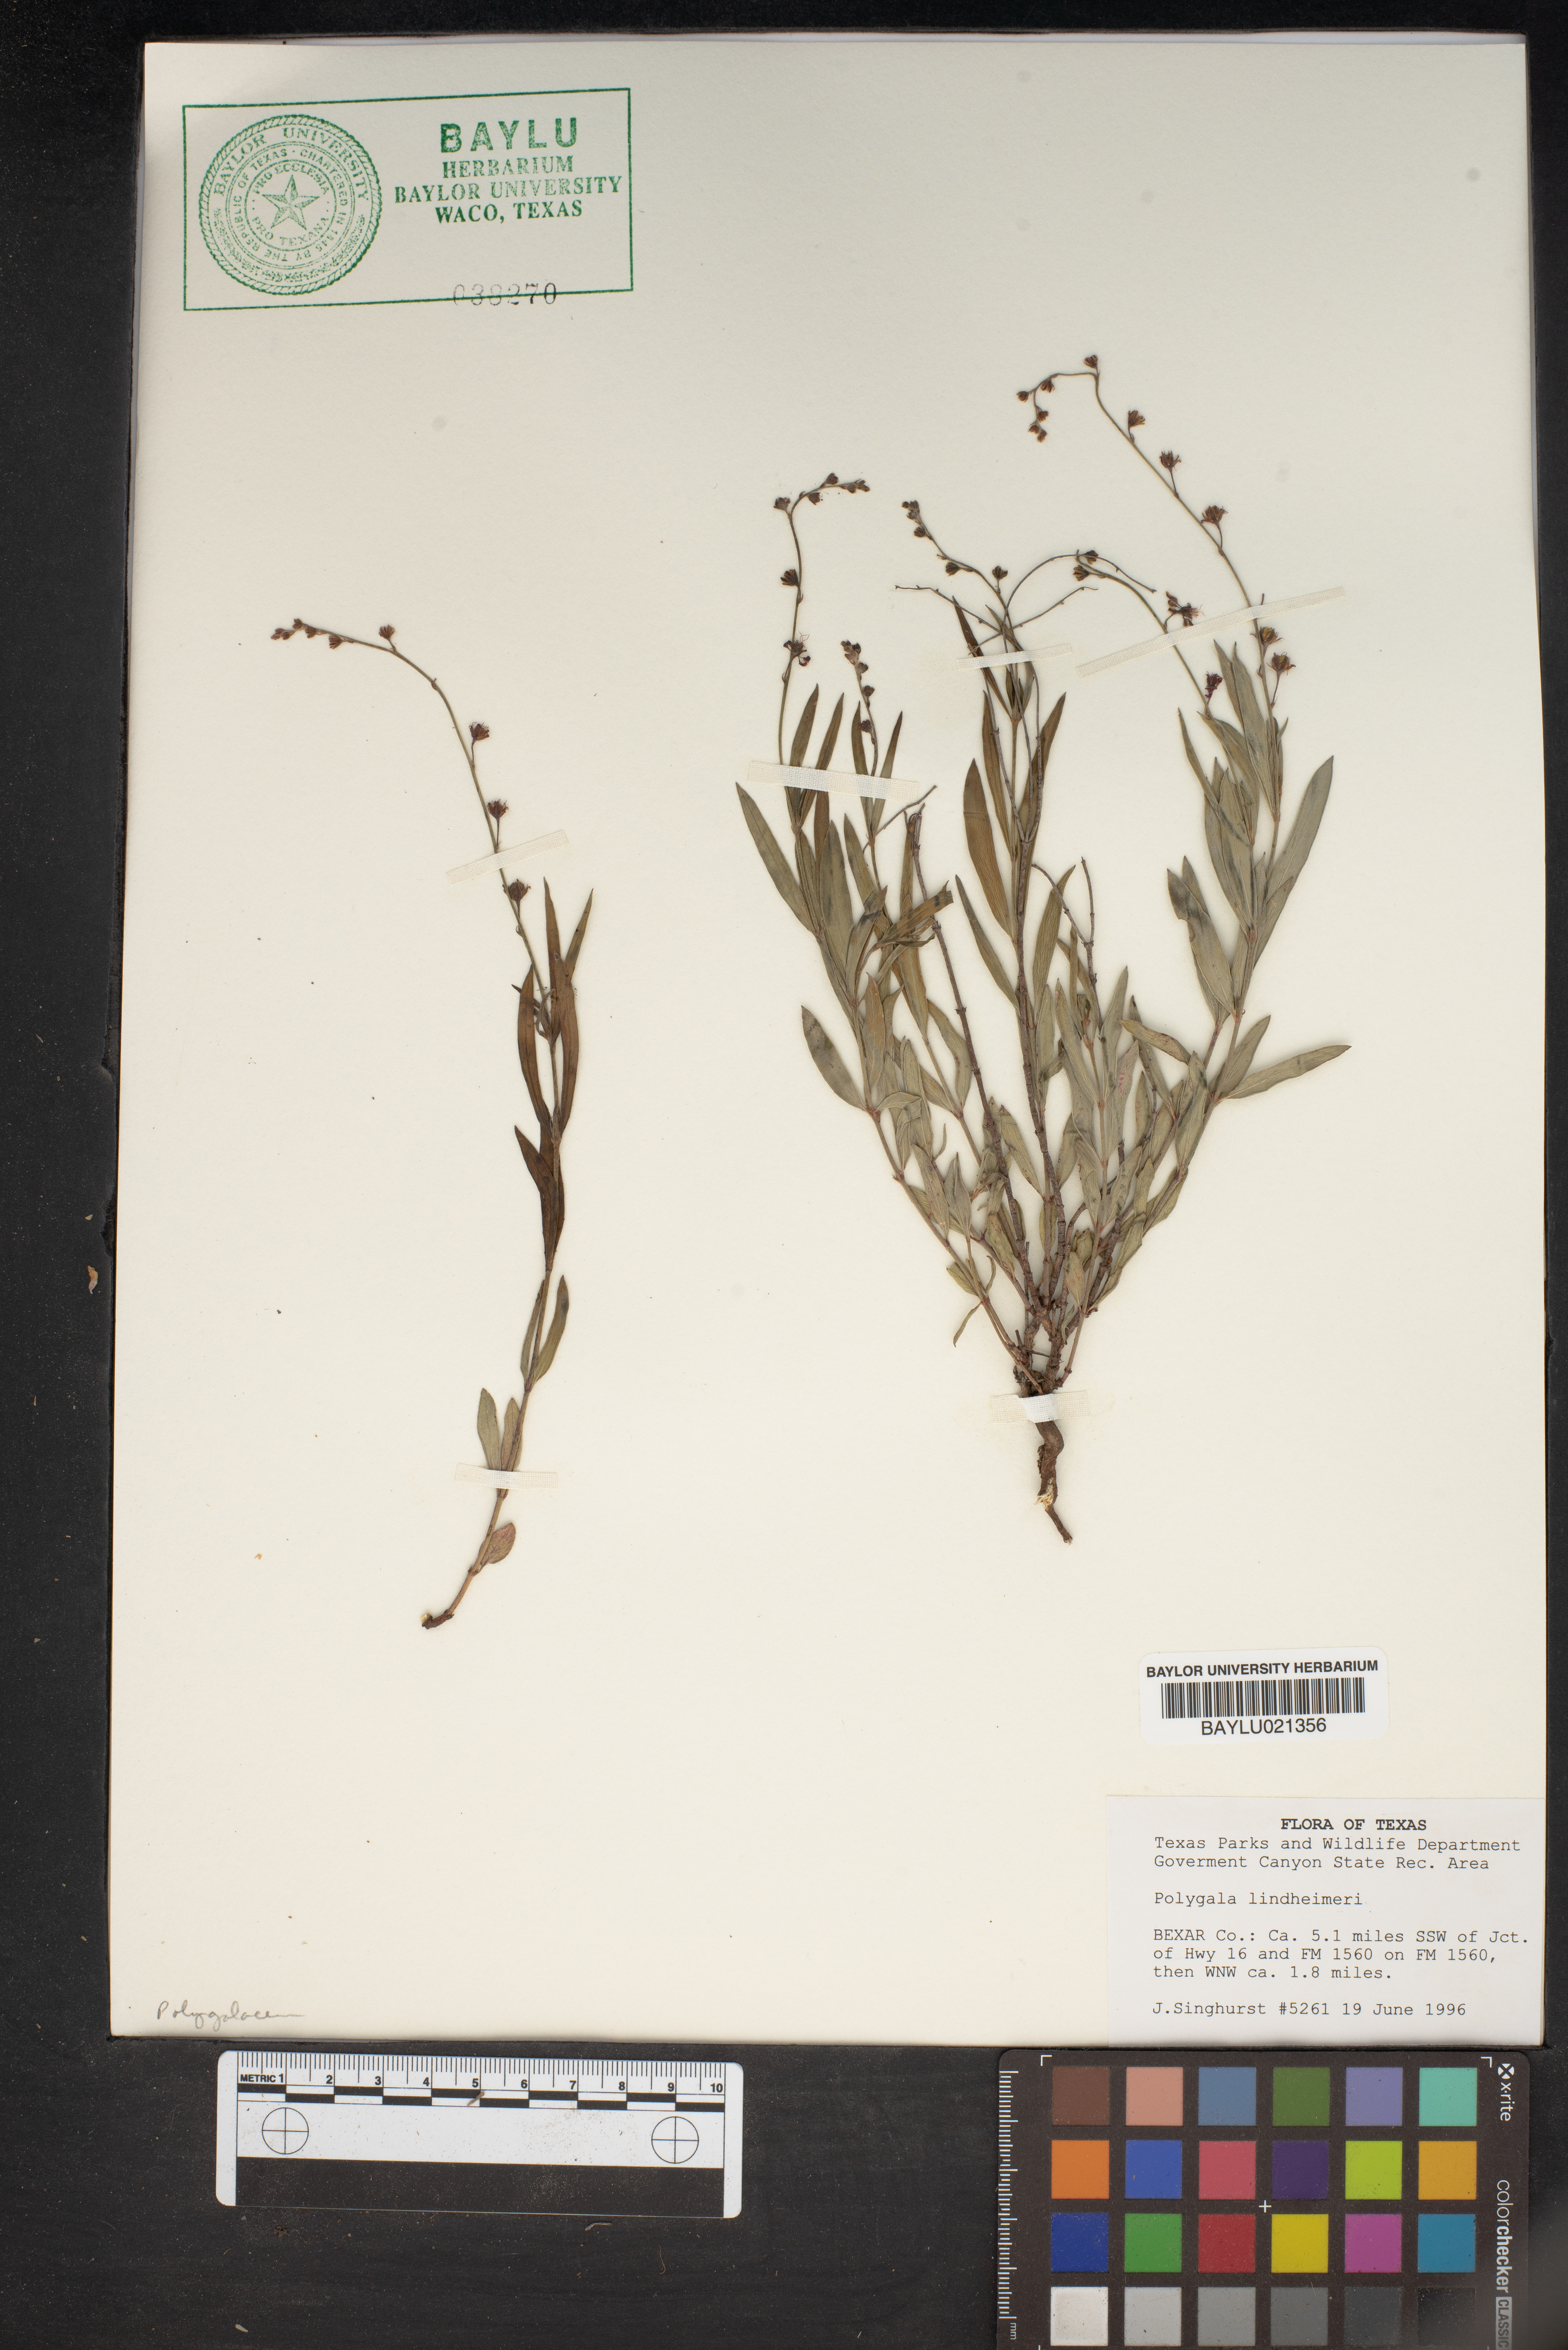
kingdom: Plantae
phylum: Tracheophyta
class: Magnoliopsida
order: Fabales
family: Polygalaceae
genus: Rhinotropis
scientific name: Rhinotropis lindheimeri
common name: Shrubby milkwort
